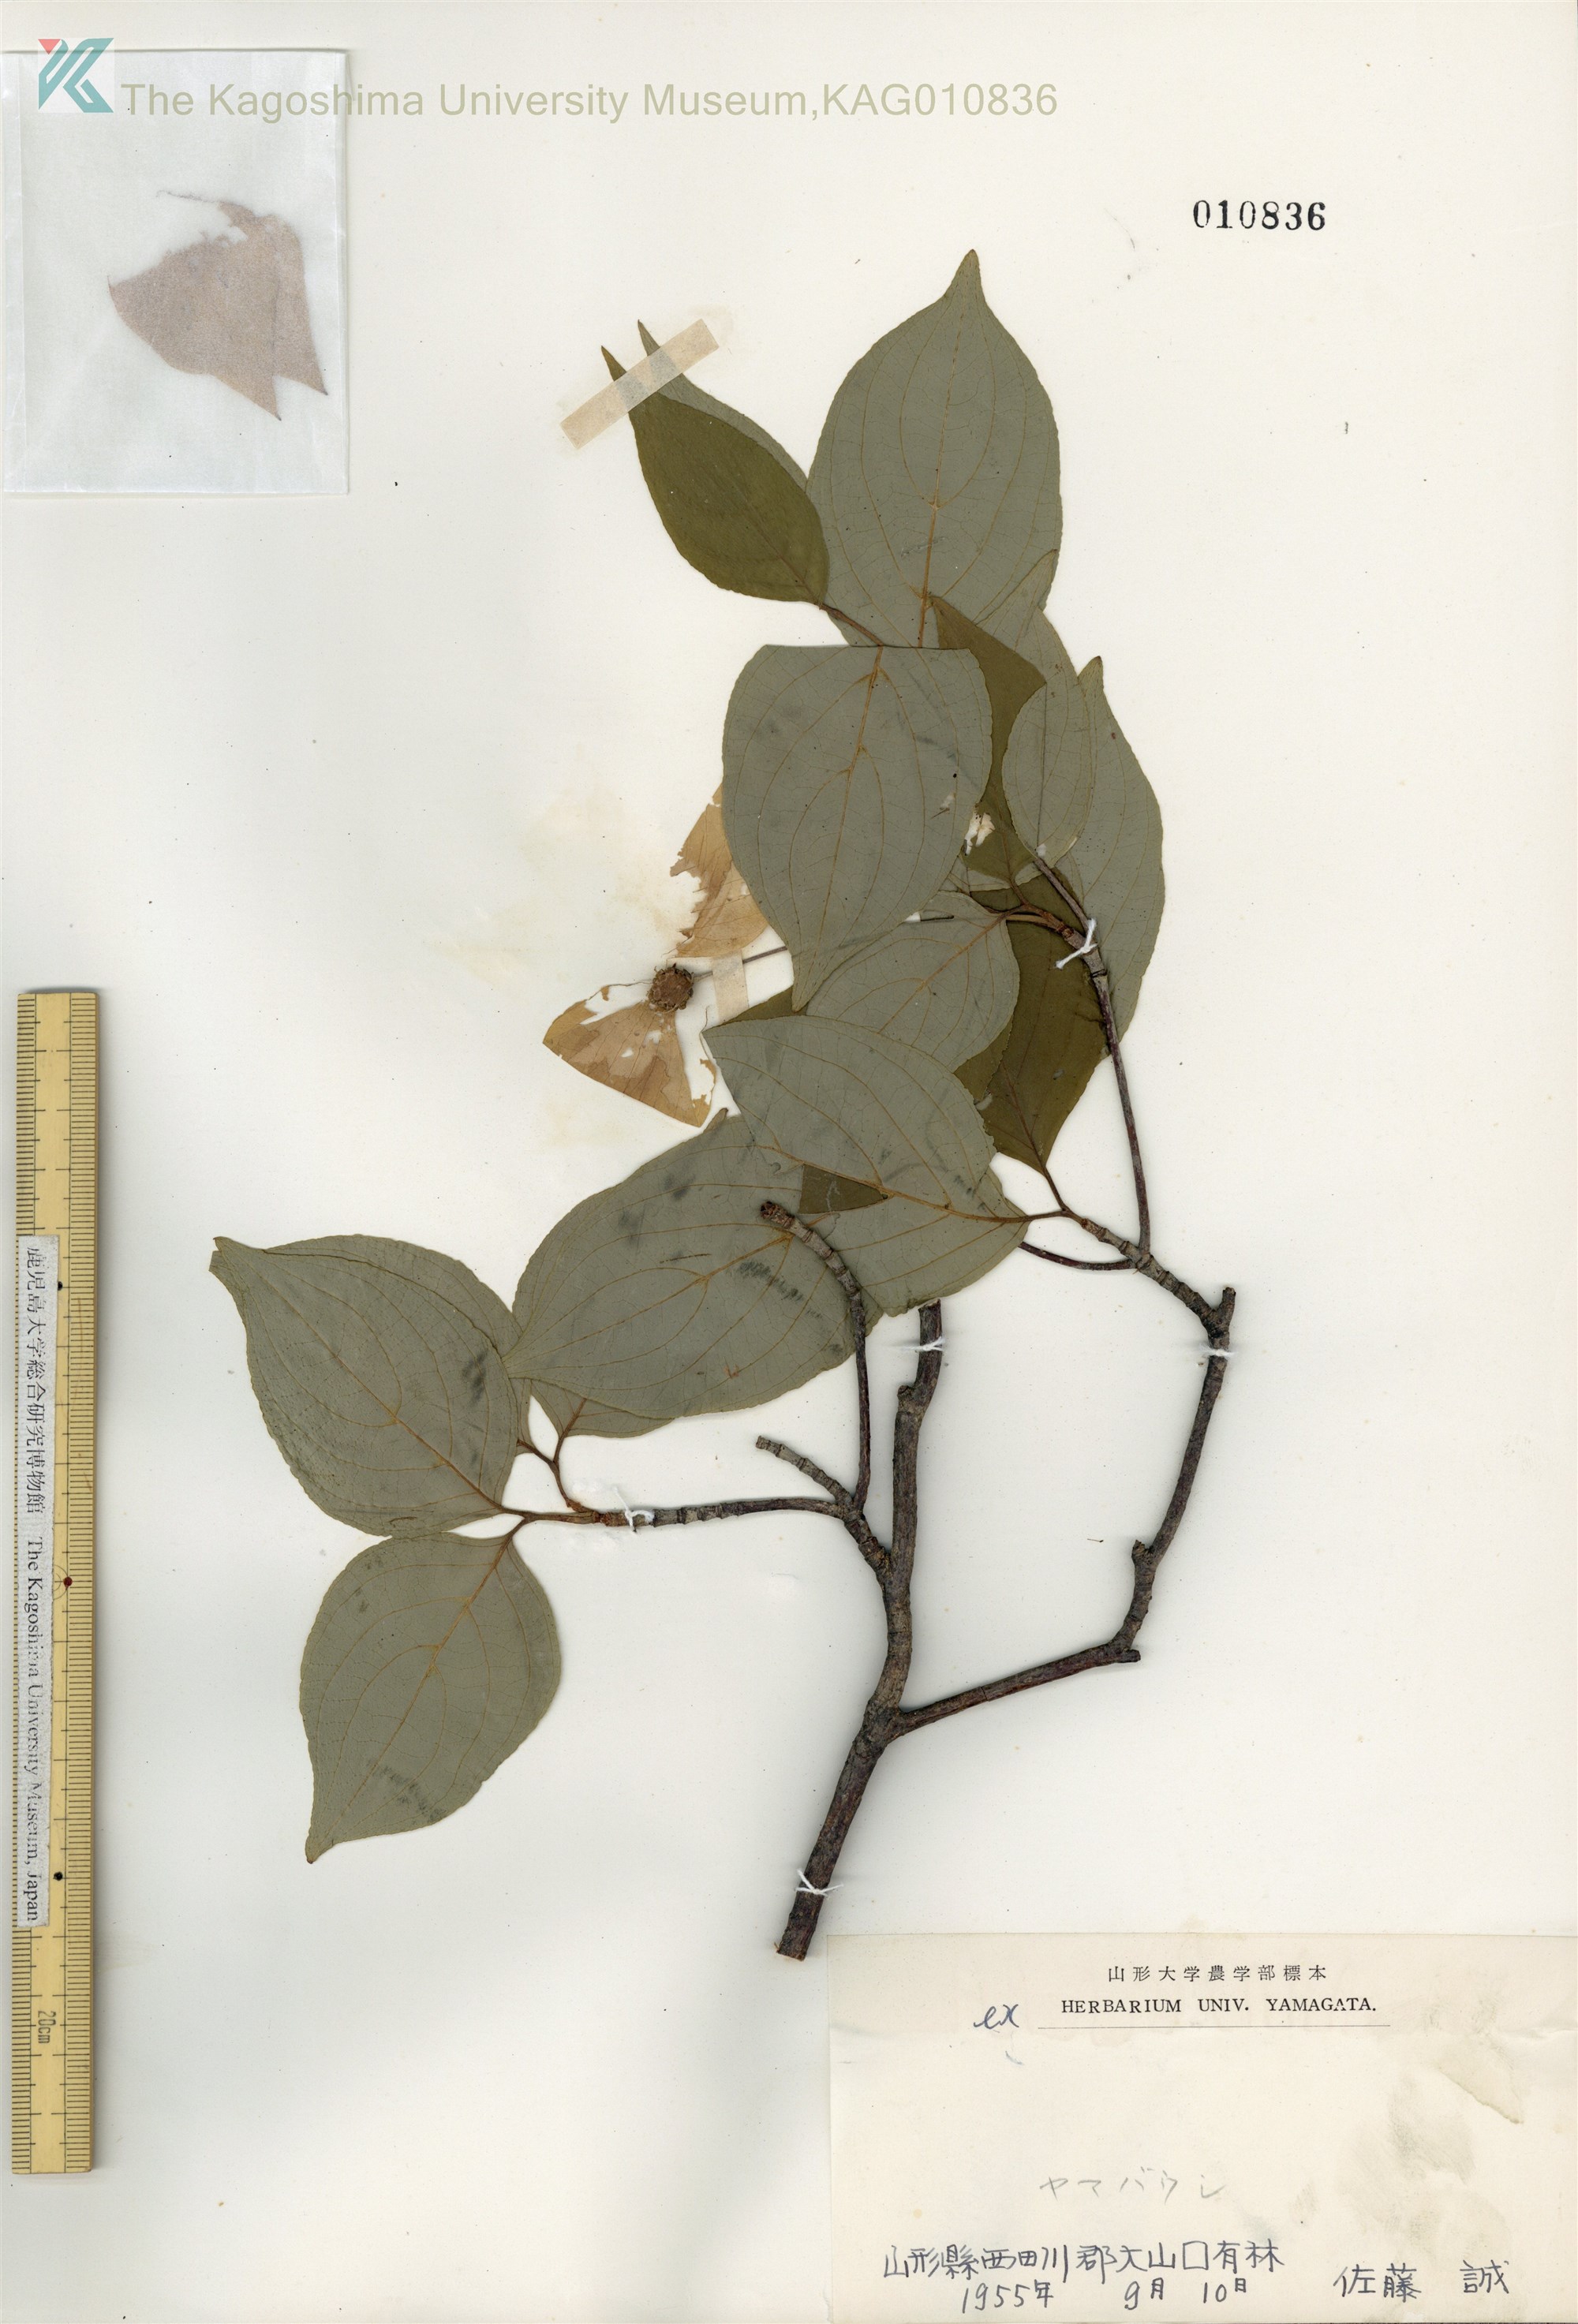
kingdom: Plantae
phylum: Tracheophyta
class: Magnoliopsida
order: Cornales
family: Cornaceae
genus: Cornus
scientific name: Cornus kousa
